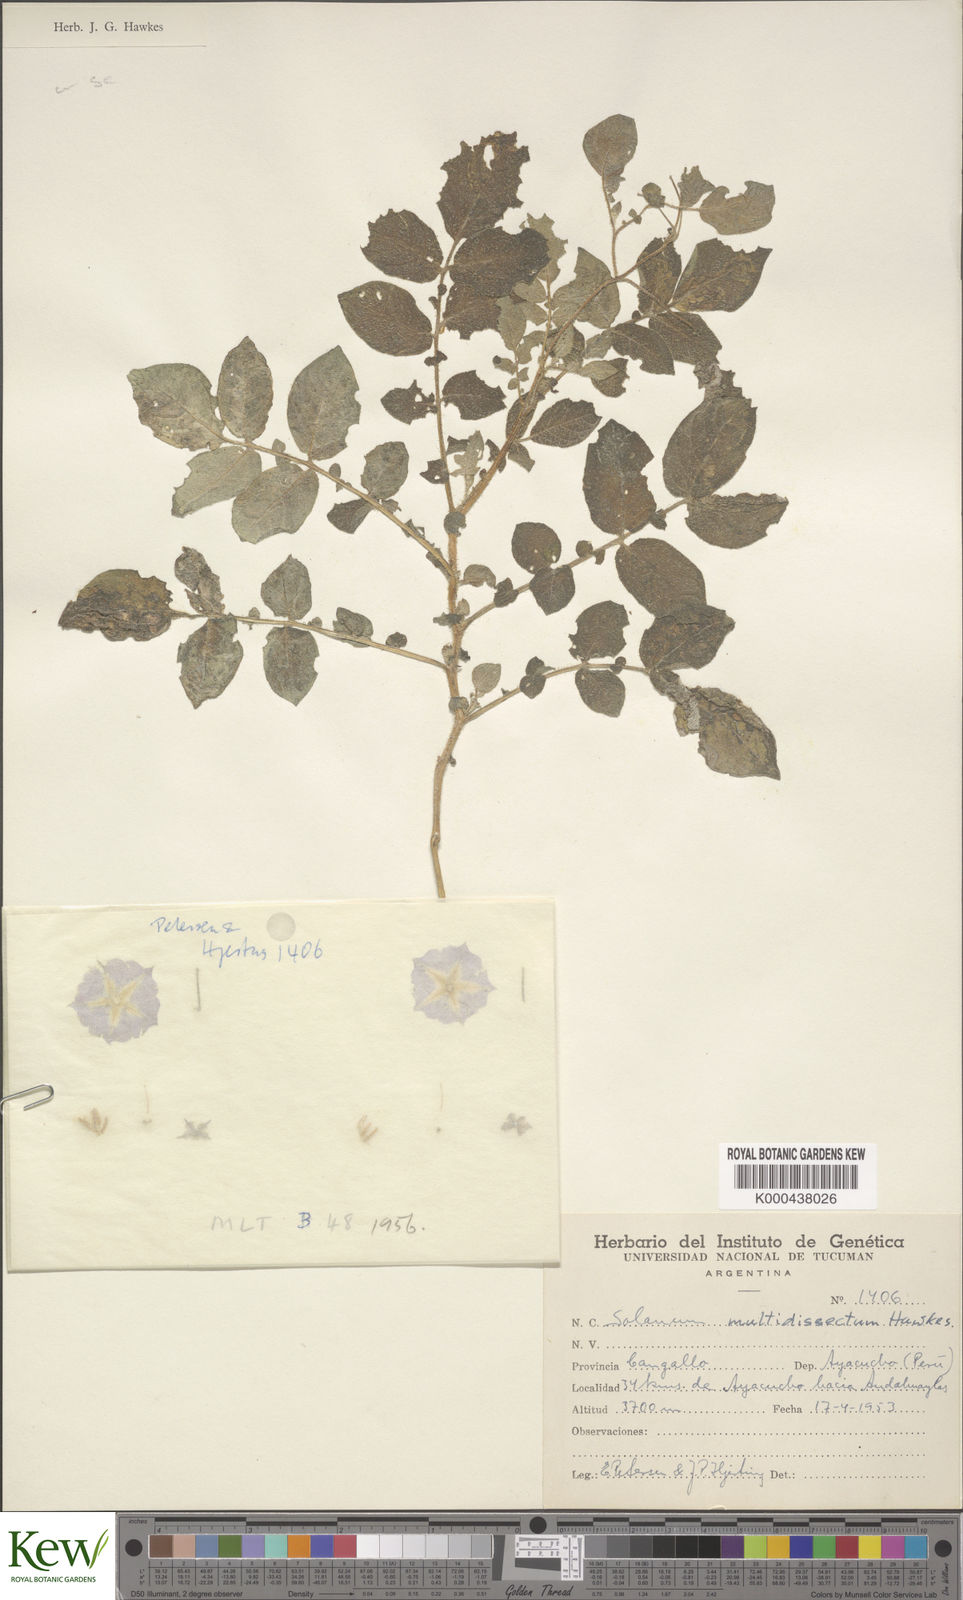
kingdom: Plantae
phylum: Tracheophyta
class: Magnoliopsida
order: Solanales
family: Solanaceae
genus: Solanum
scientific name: Solanum candolleanum
